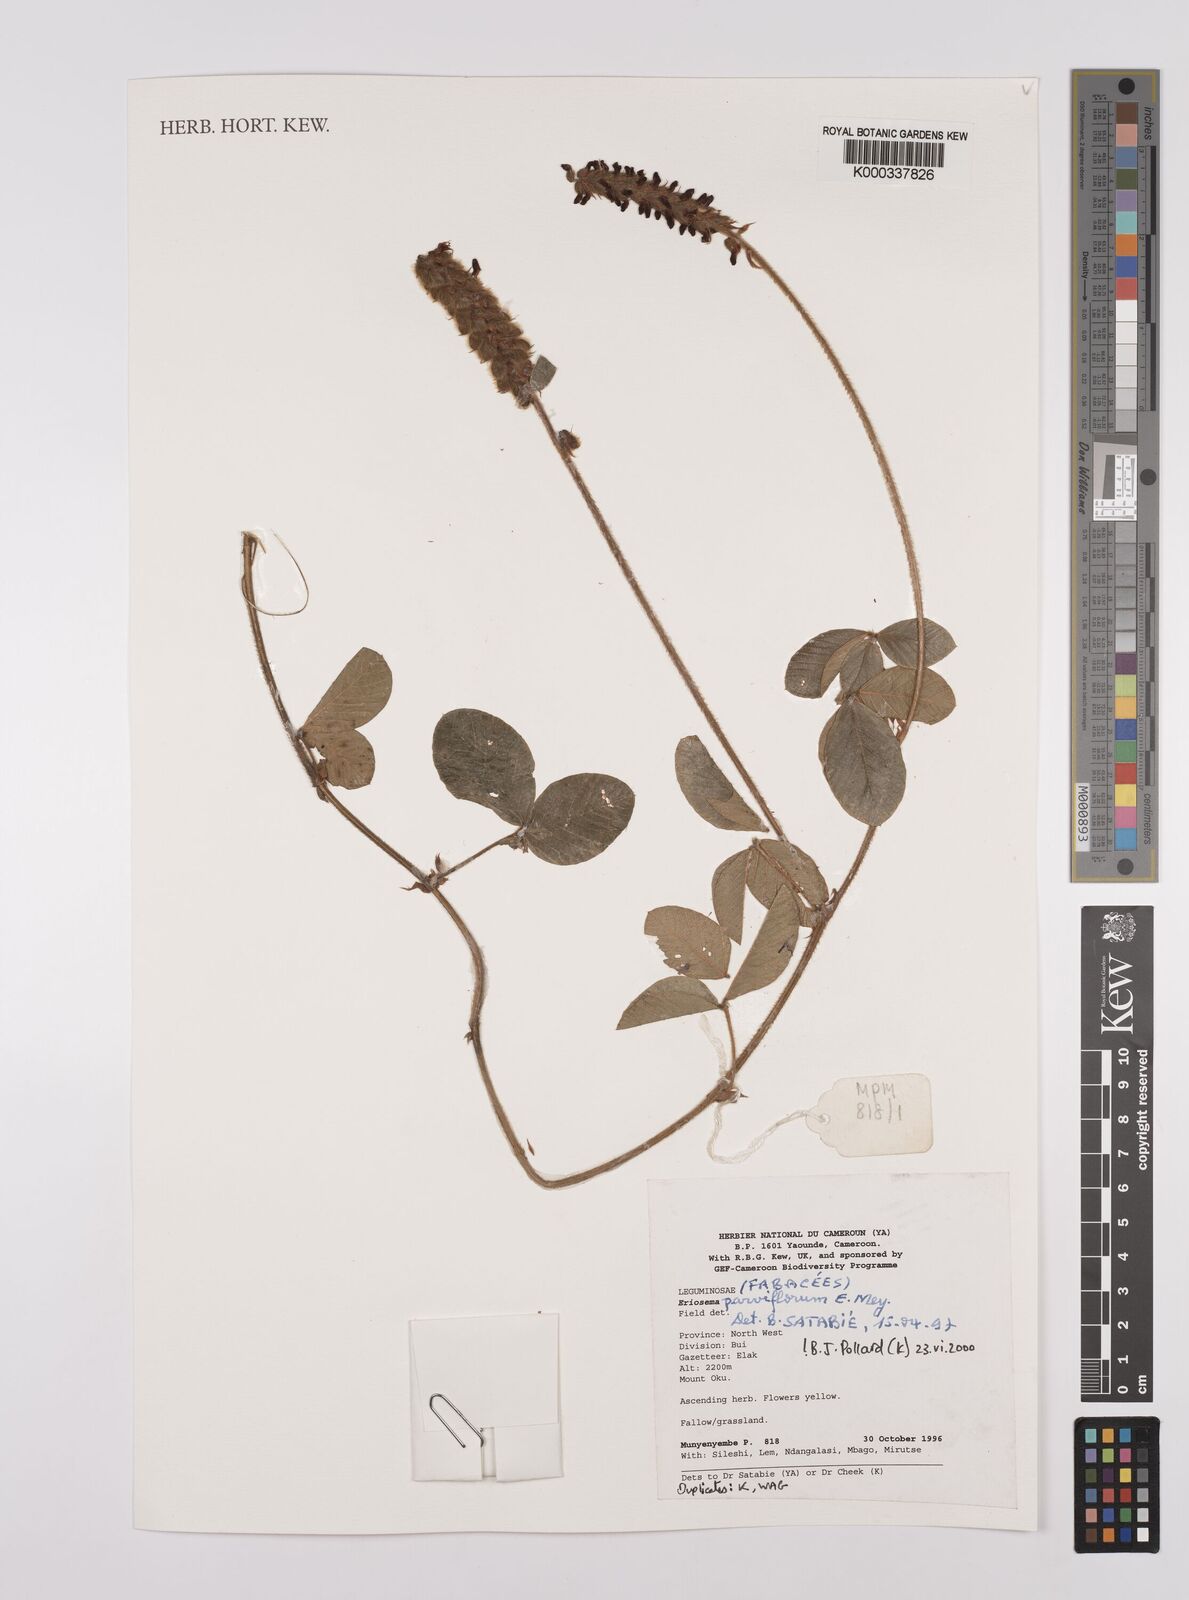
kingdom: Plantae
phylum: Tracheophyta
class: Magnoliopsida
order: Fabales
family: Fabaceae
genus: Eriosema
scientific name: Eriosema parviflorum
